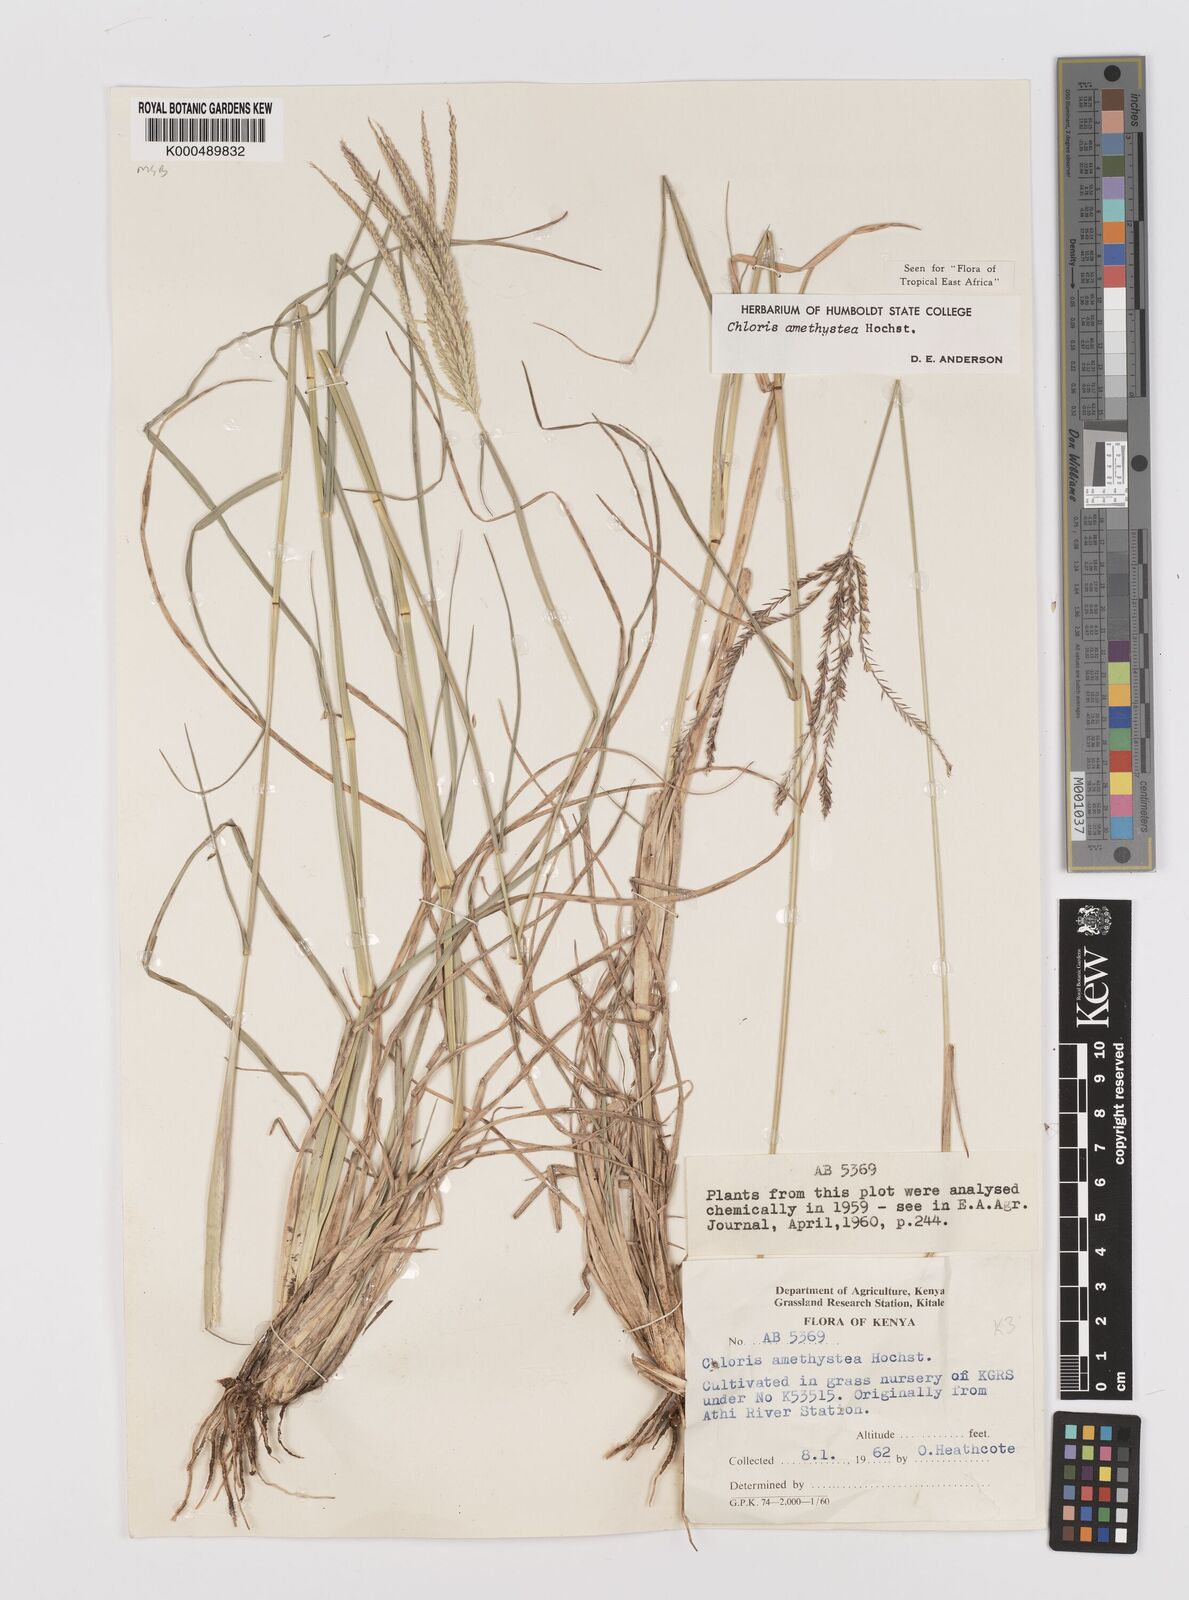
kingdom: Plantae
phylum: Tracheophyta
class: Liliopsida
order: Poales
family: Poaceae
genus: Chloris
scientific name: Chloris amethystea
